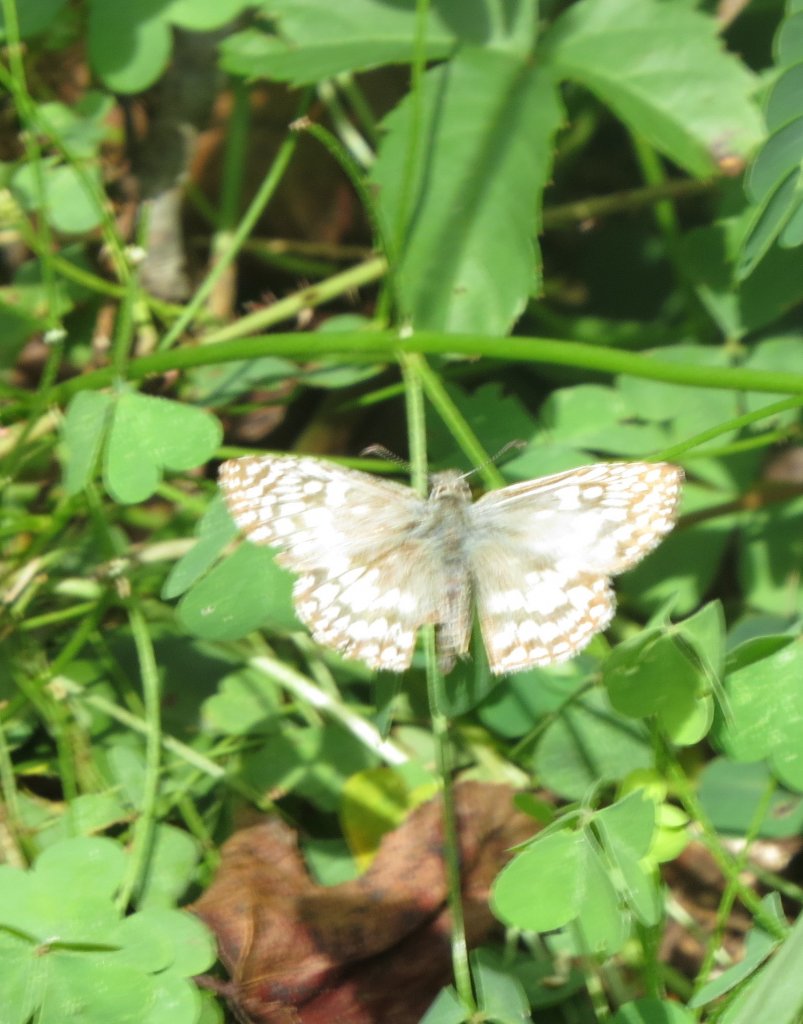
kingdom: Animalia
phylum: Arthropoda
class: Insecta
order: Lepidoptera
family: Hesperiidae
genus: Pyrgus
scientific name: Pyrgus oileus
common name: Tropical Checkered-Skipper
